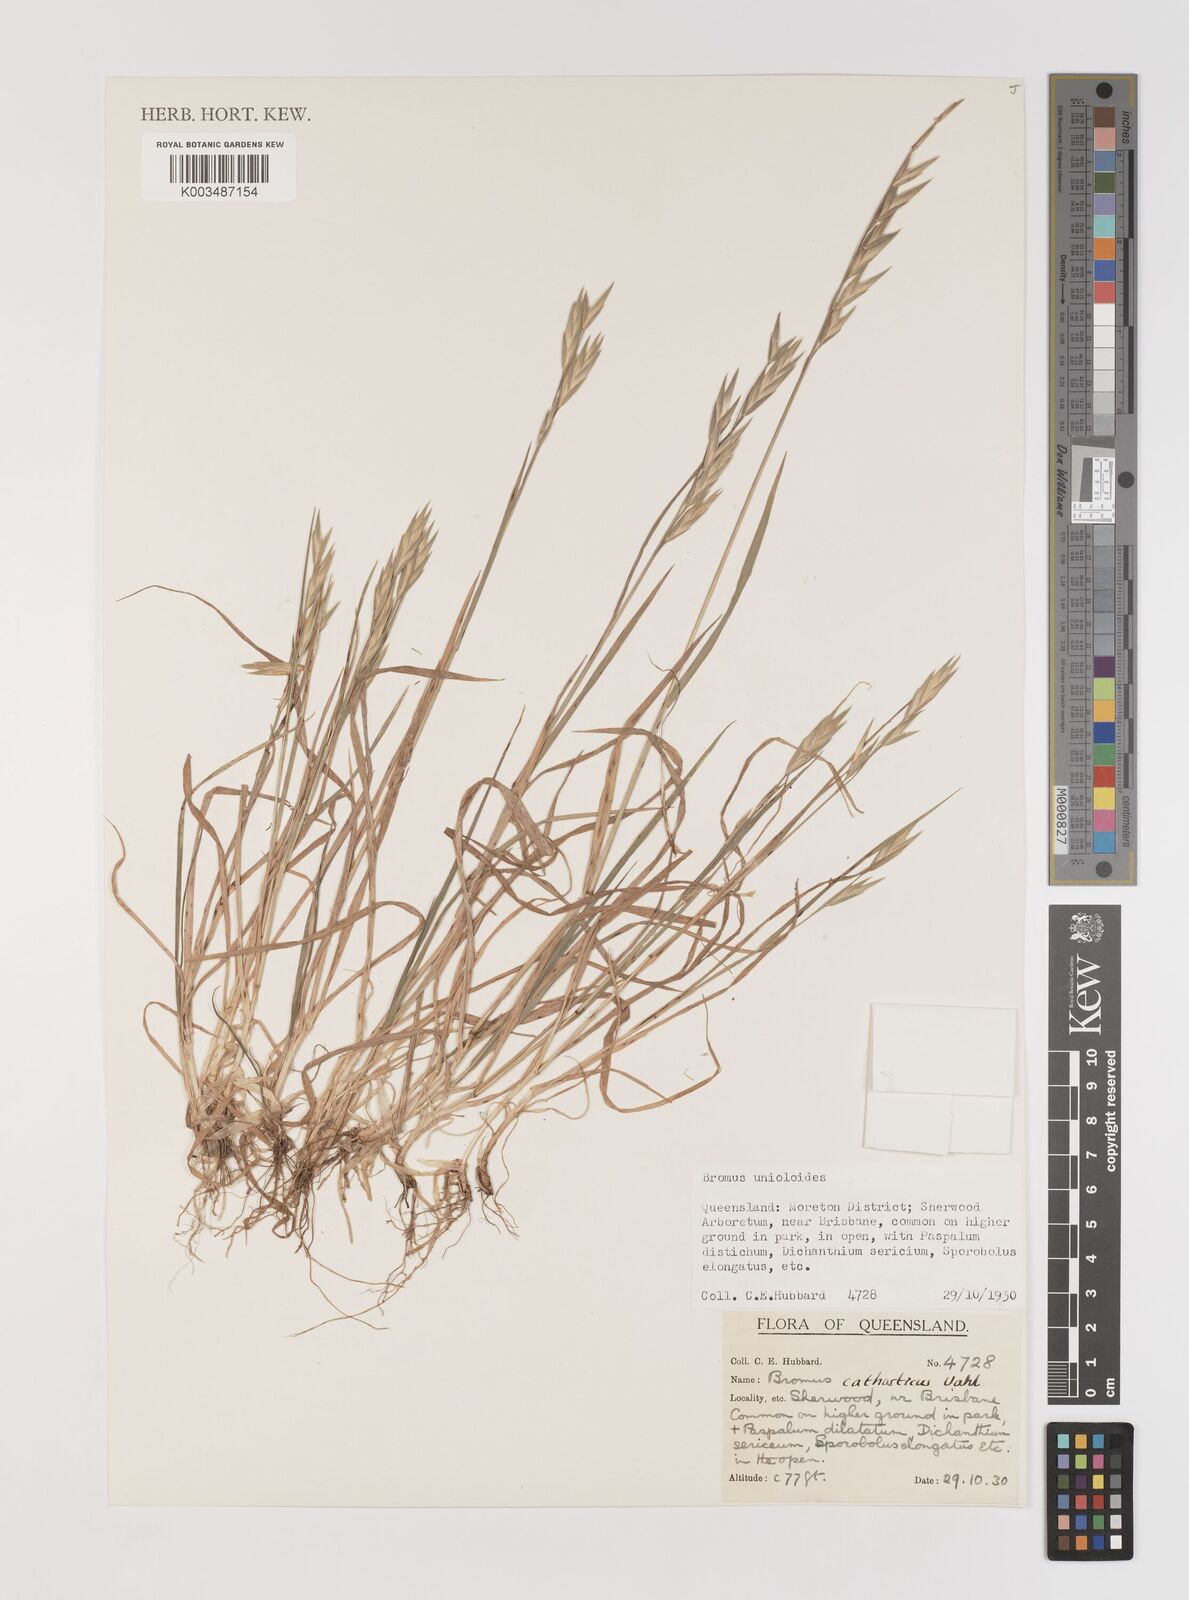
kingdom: Plantae
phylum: Tracheophyta
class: Liliopsida
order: Poales
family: Poaceae
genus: Bromus
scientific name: Bromus catharticus
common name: Rescuegrass
